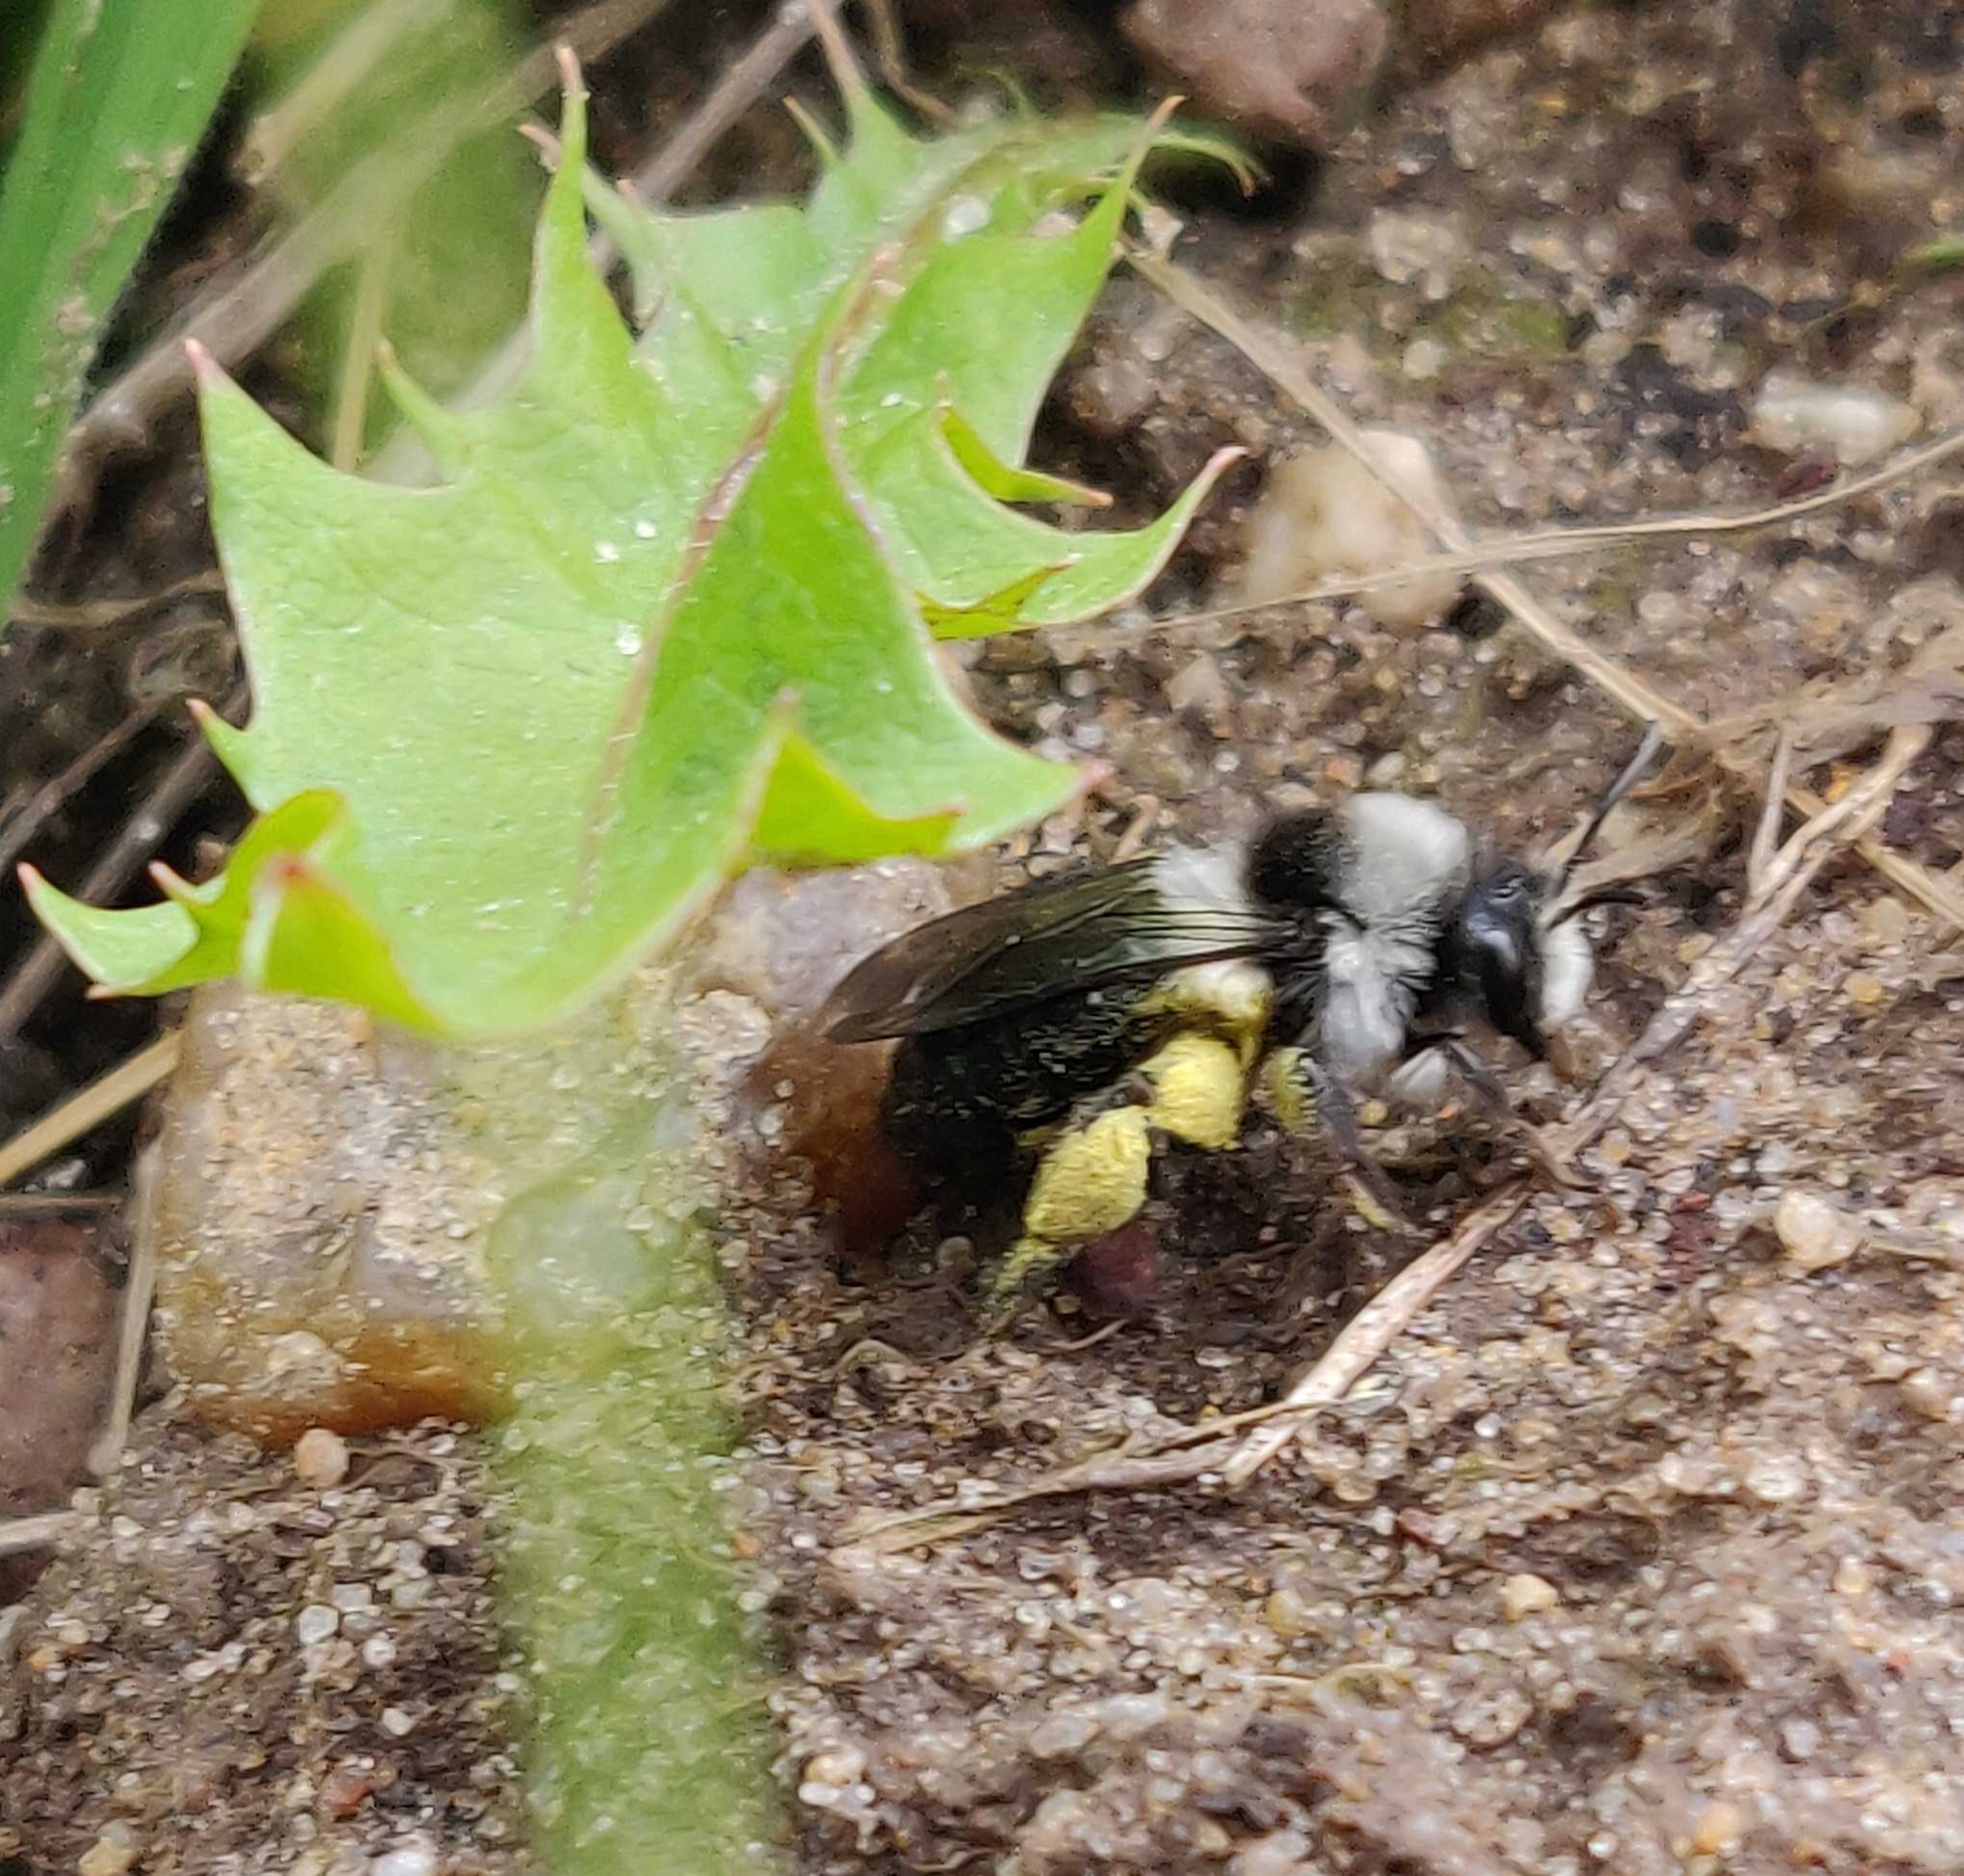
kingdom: Animalia
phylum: Arthropoda
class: Insecta
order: Hymenoptera
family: Andrenidae
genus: Andrena
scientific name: Andrena cineraria
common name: Sorthvid jordbi
